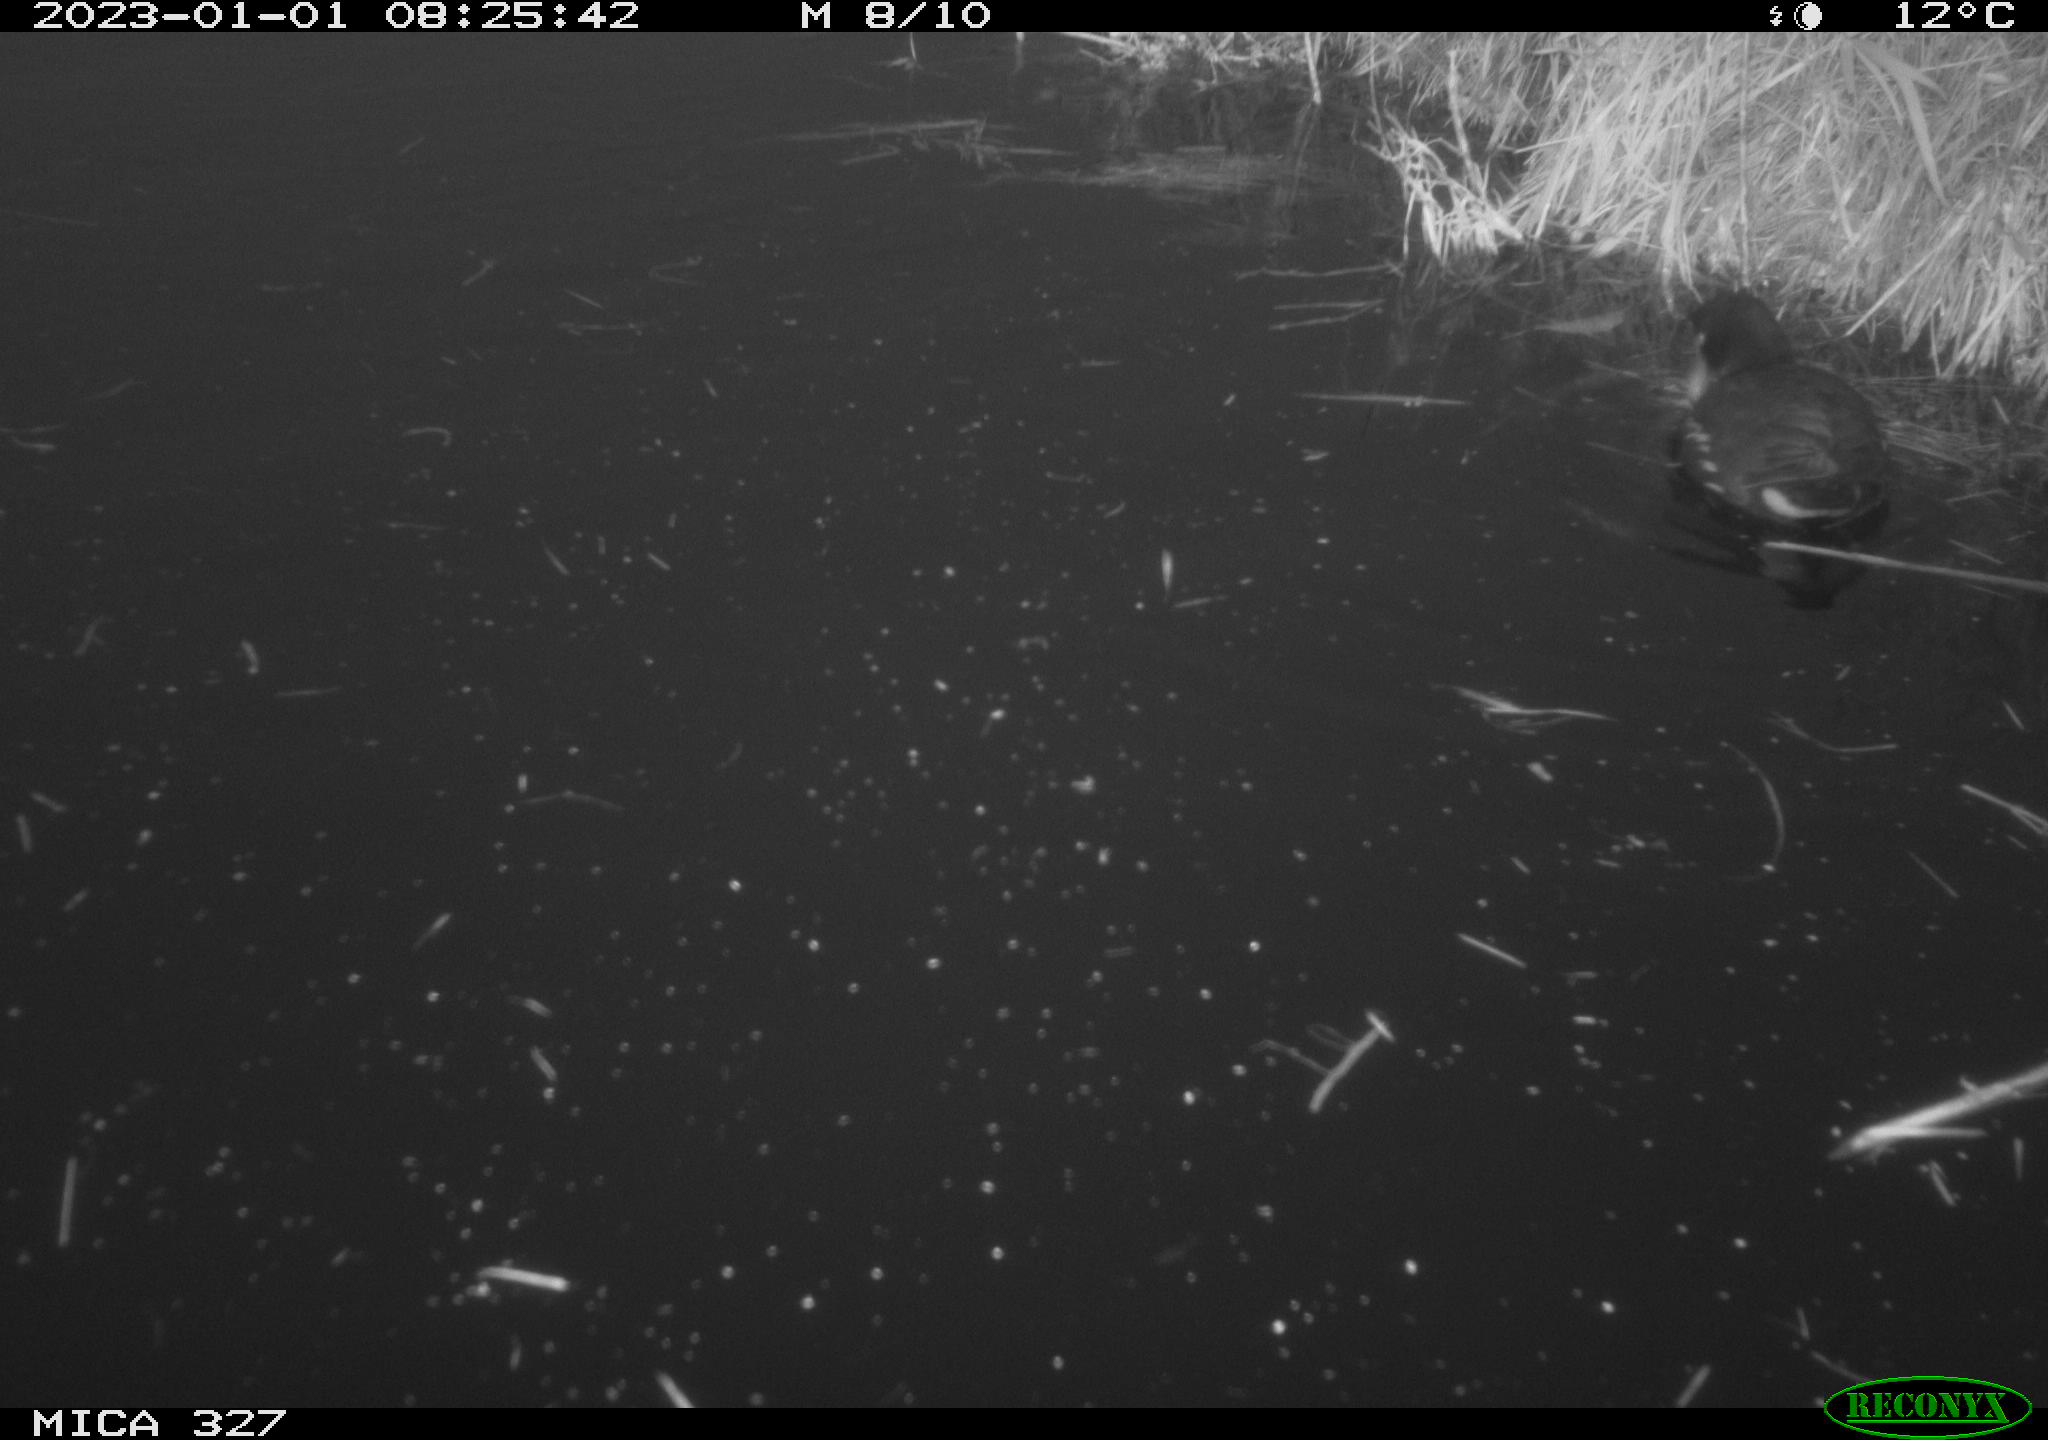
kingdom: Animalia
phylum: Chordata
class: Aves
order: Gruiformes
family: Rallidae
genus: Gallinula
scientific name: Gallinula chloropus
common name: Common moorhen
